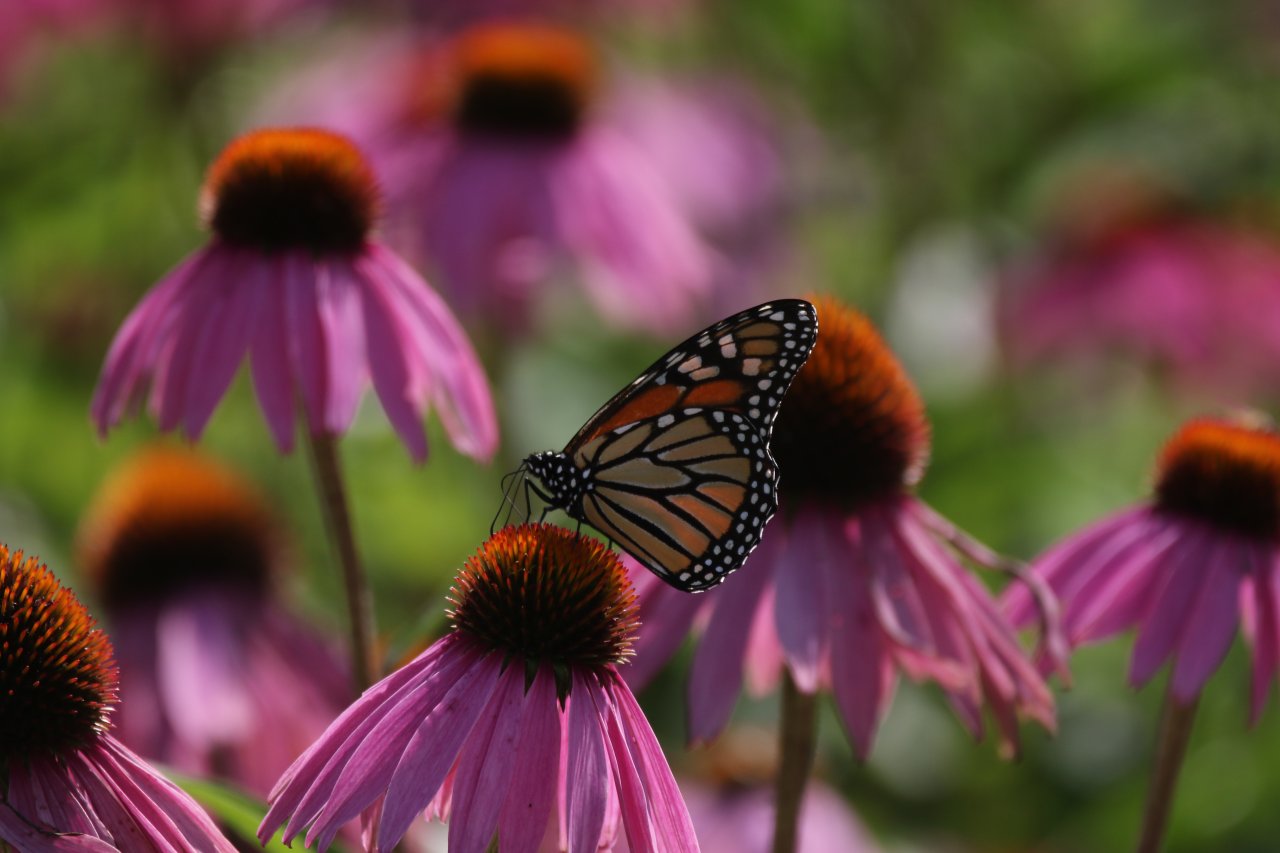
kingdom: Animalia
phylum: Arthropoda
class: Insecta
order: Lepidoptera
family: Nymphalidae
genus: Danaus
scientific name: Danaus plexippus
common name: Monarch
